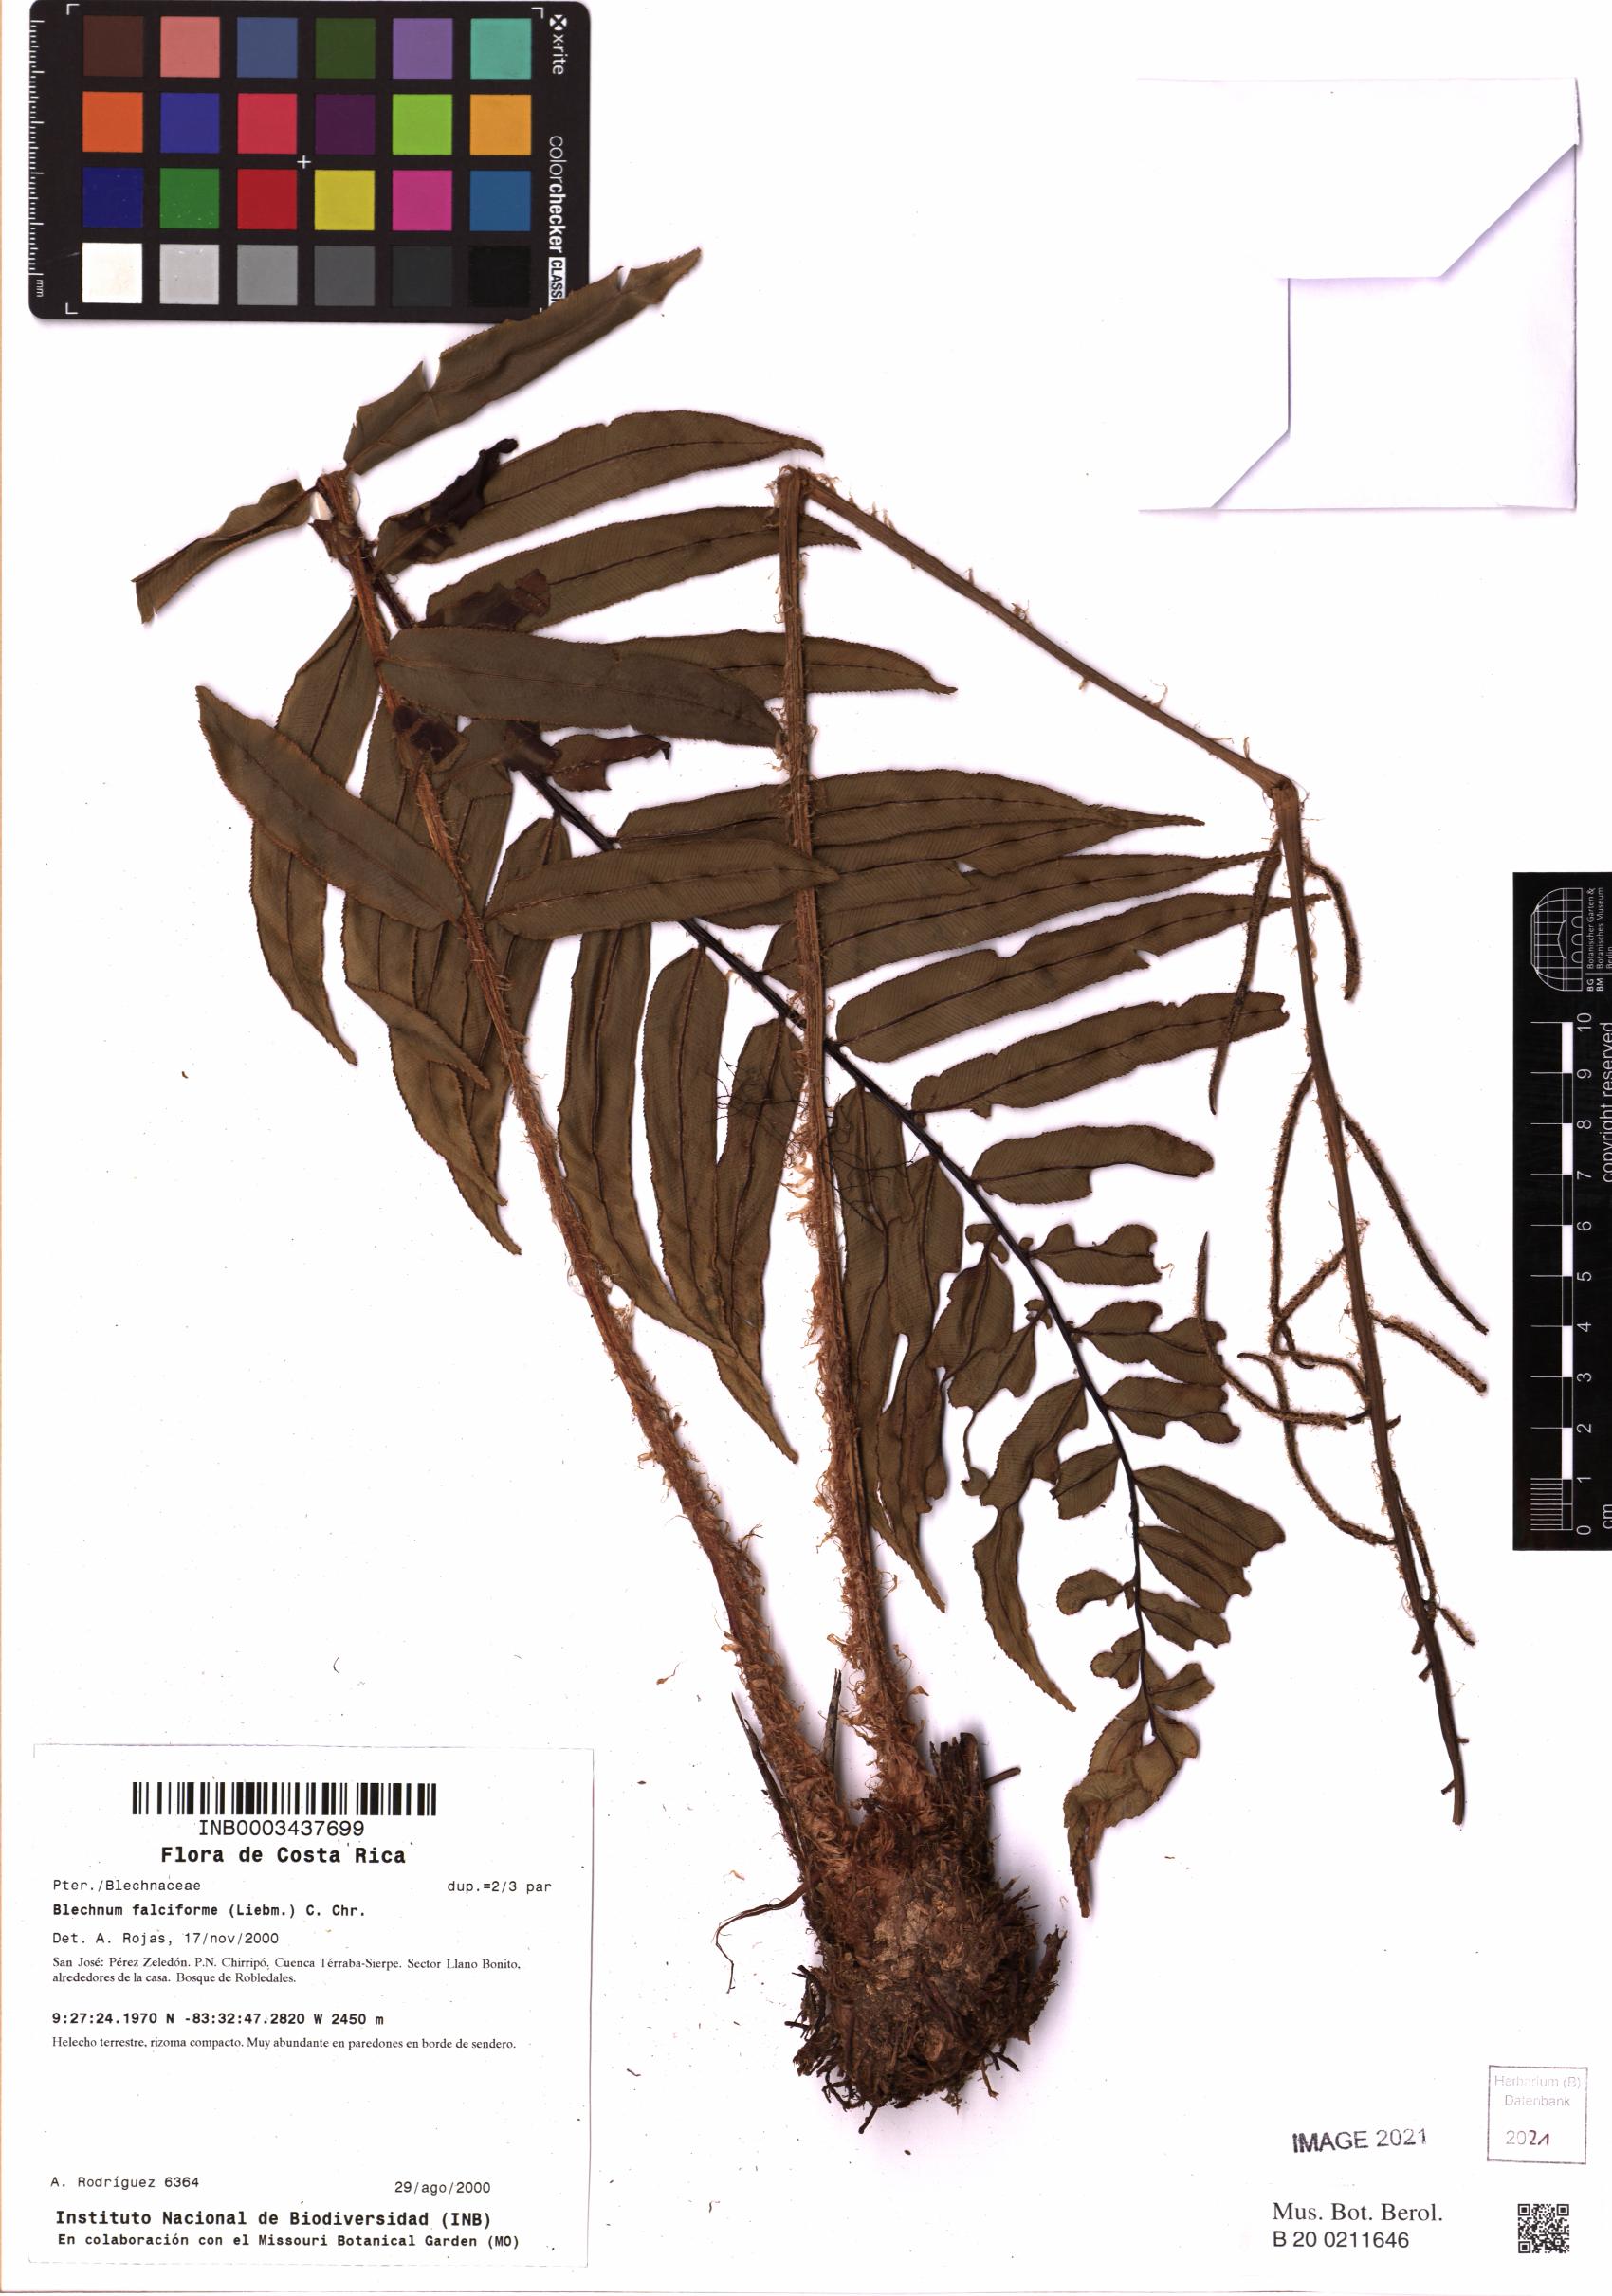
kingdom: Plantae
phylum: Tracheophyta
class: Polypodiopsida
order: Polypodiales
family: Blechnaceae
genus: Parablechnum
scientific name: Parablechnum falciforme
